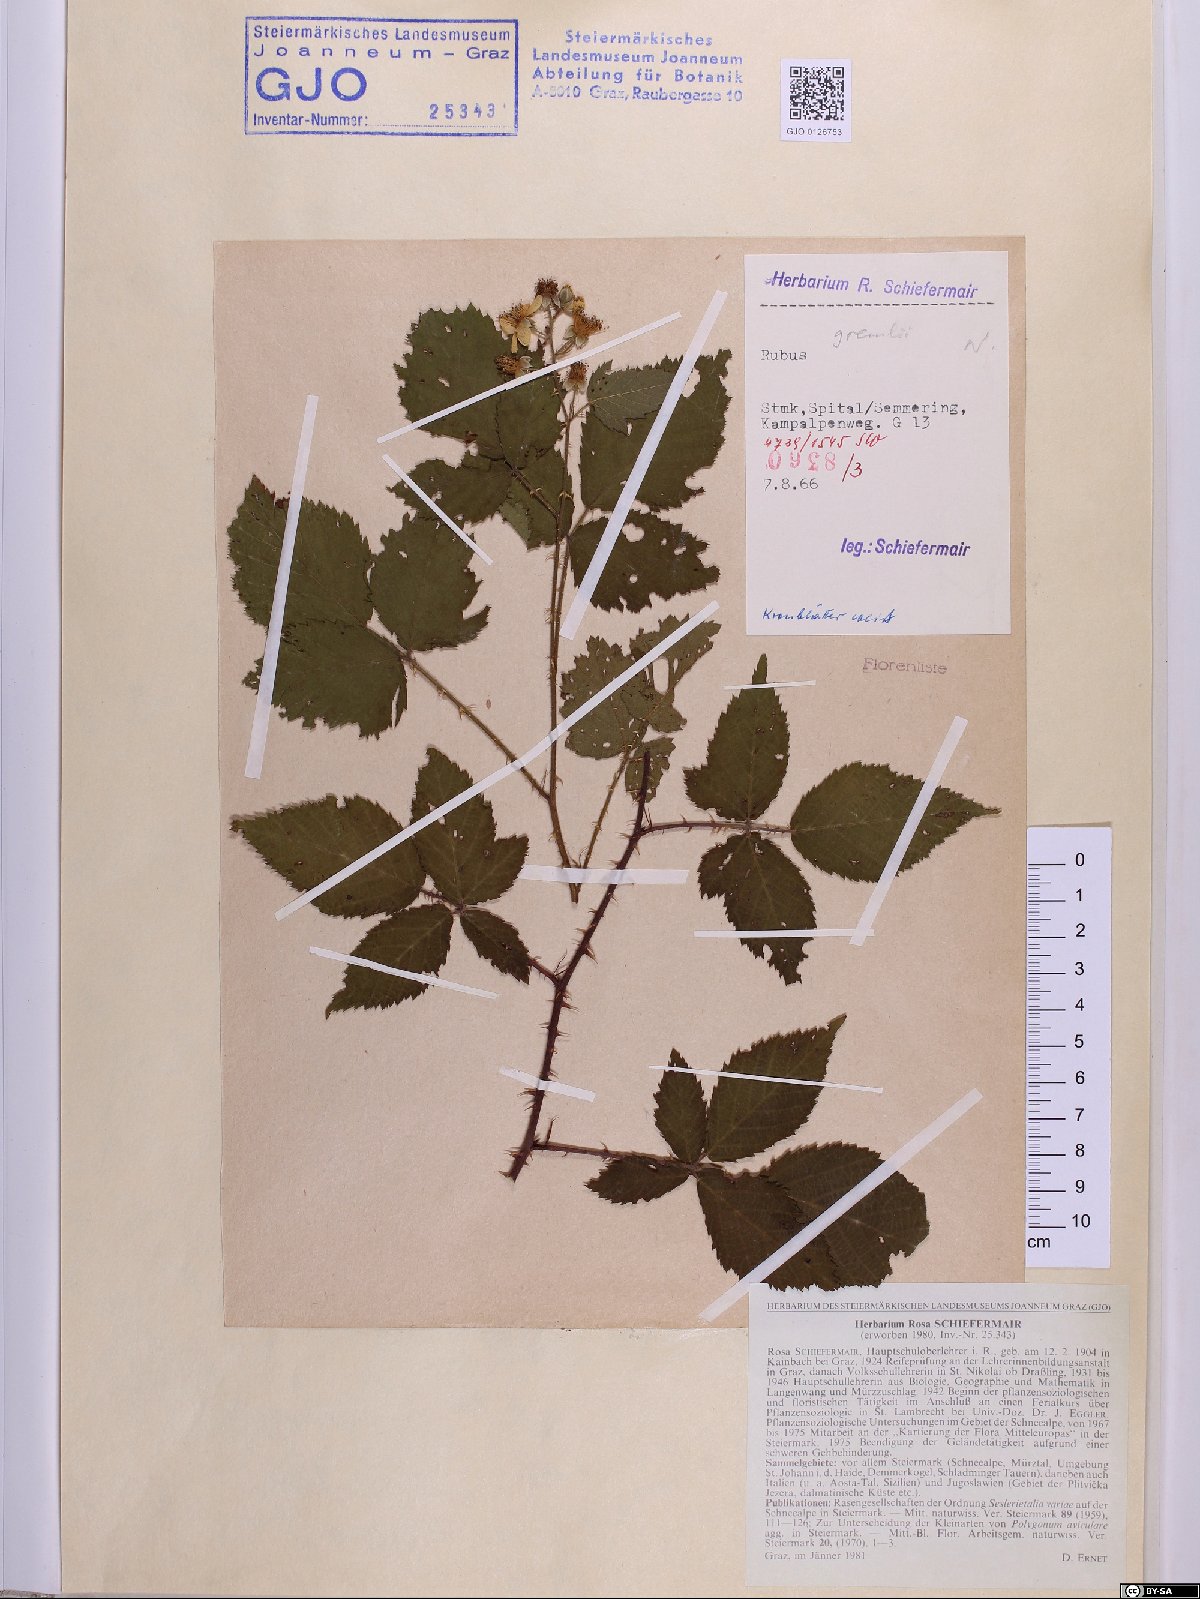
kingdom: Plantae
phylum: Tracheophyta
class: Magnoliopsida
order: Rosales
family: Rosaceae
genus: Rubus
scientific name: Rubus gremlii
